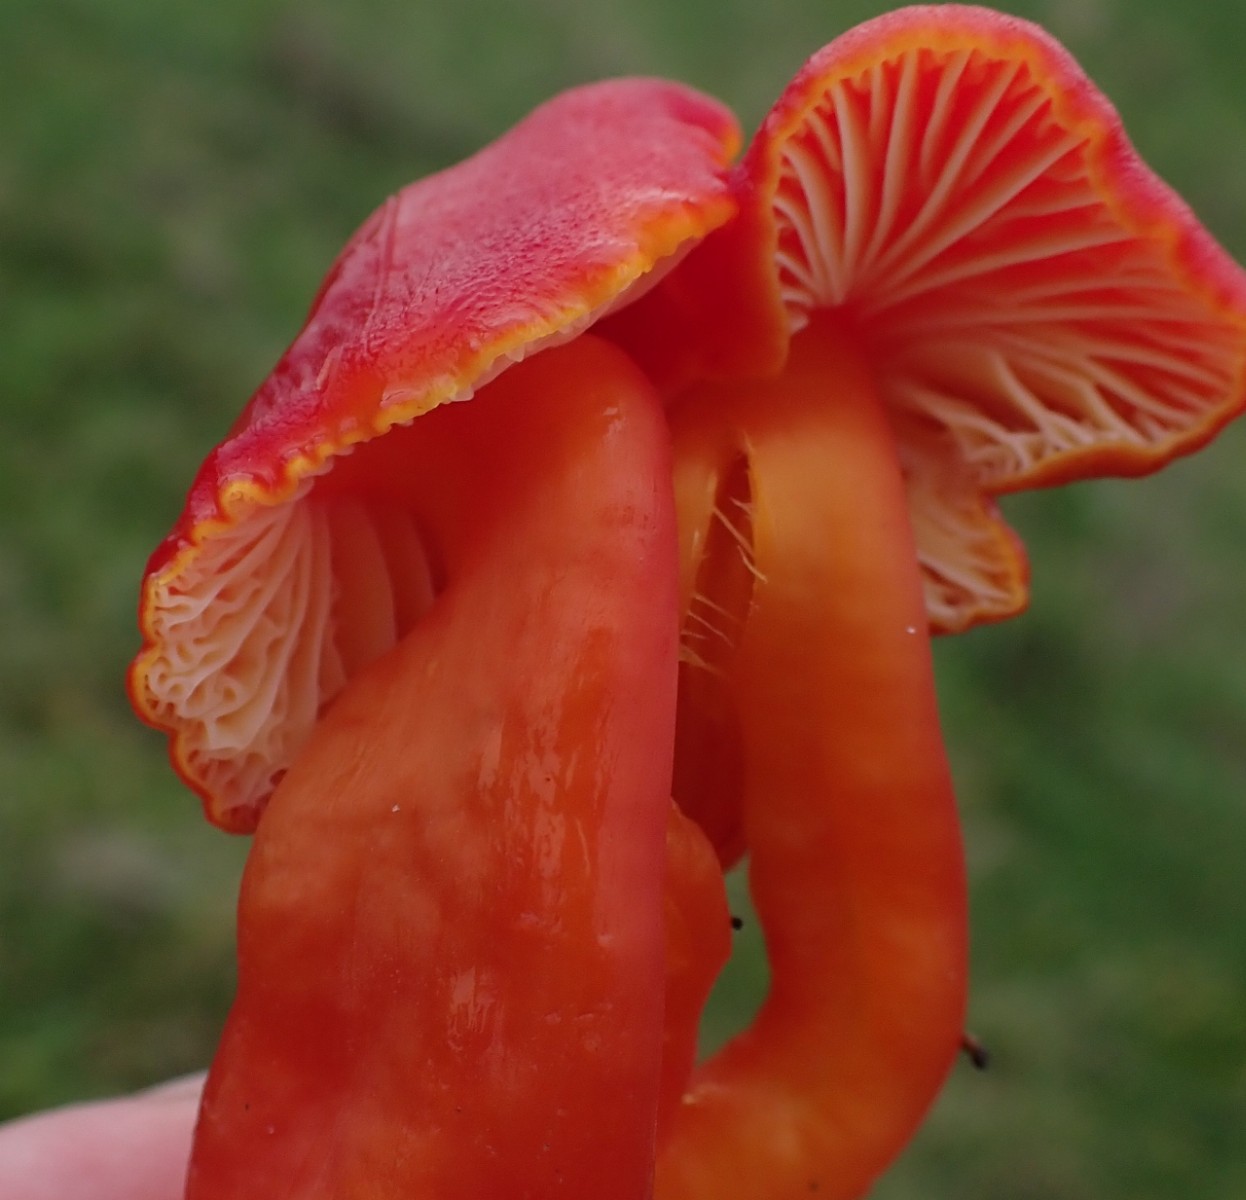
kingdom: Fungi
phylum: Basidiomycota
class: Agaricomycetes
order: Agaricales
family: Hygrophoraceae
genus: Hygrocybe
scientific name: Hygrocybe coccinea
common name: cinnober-vokshat
